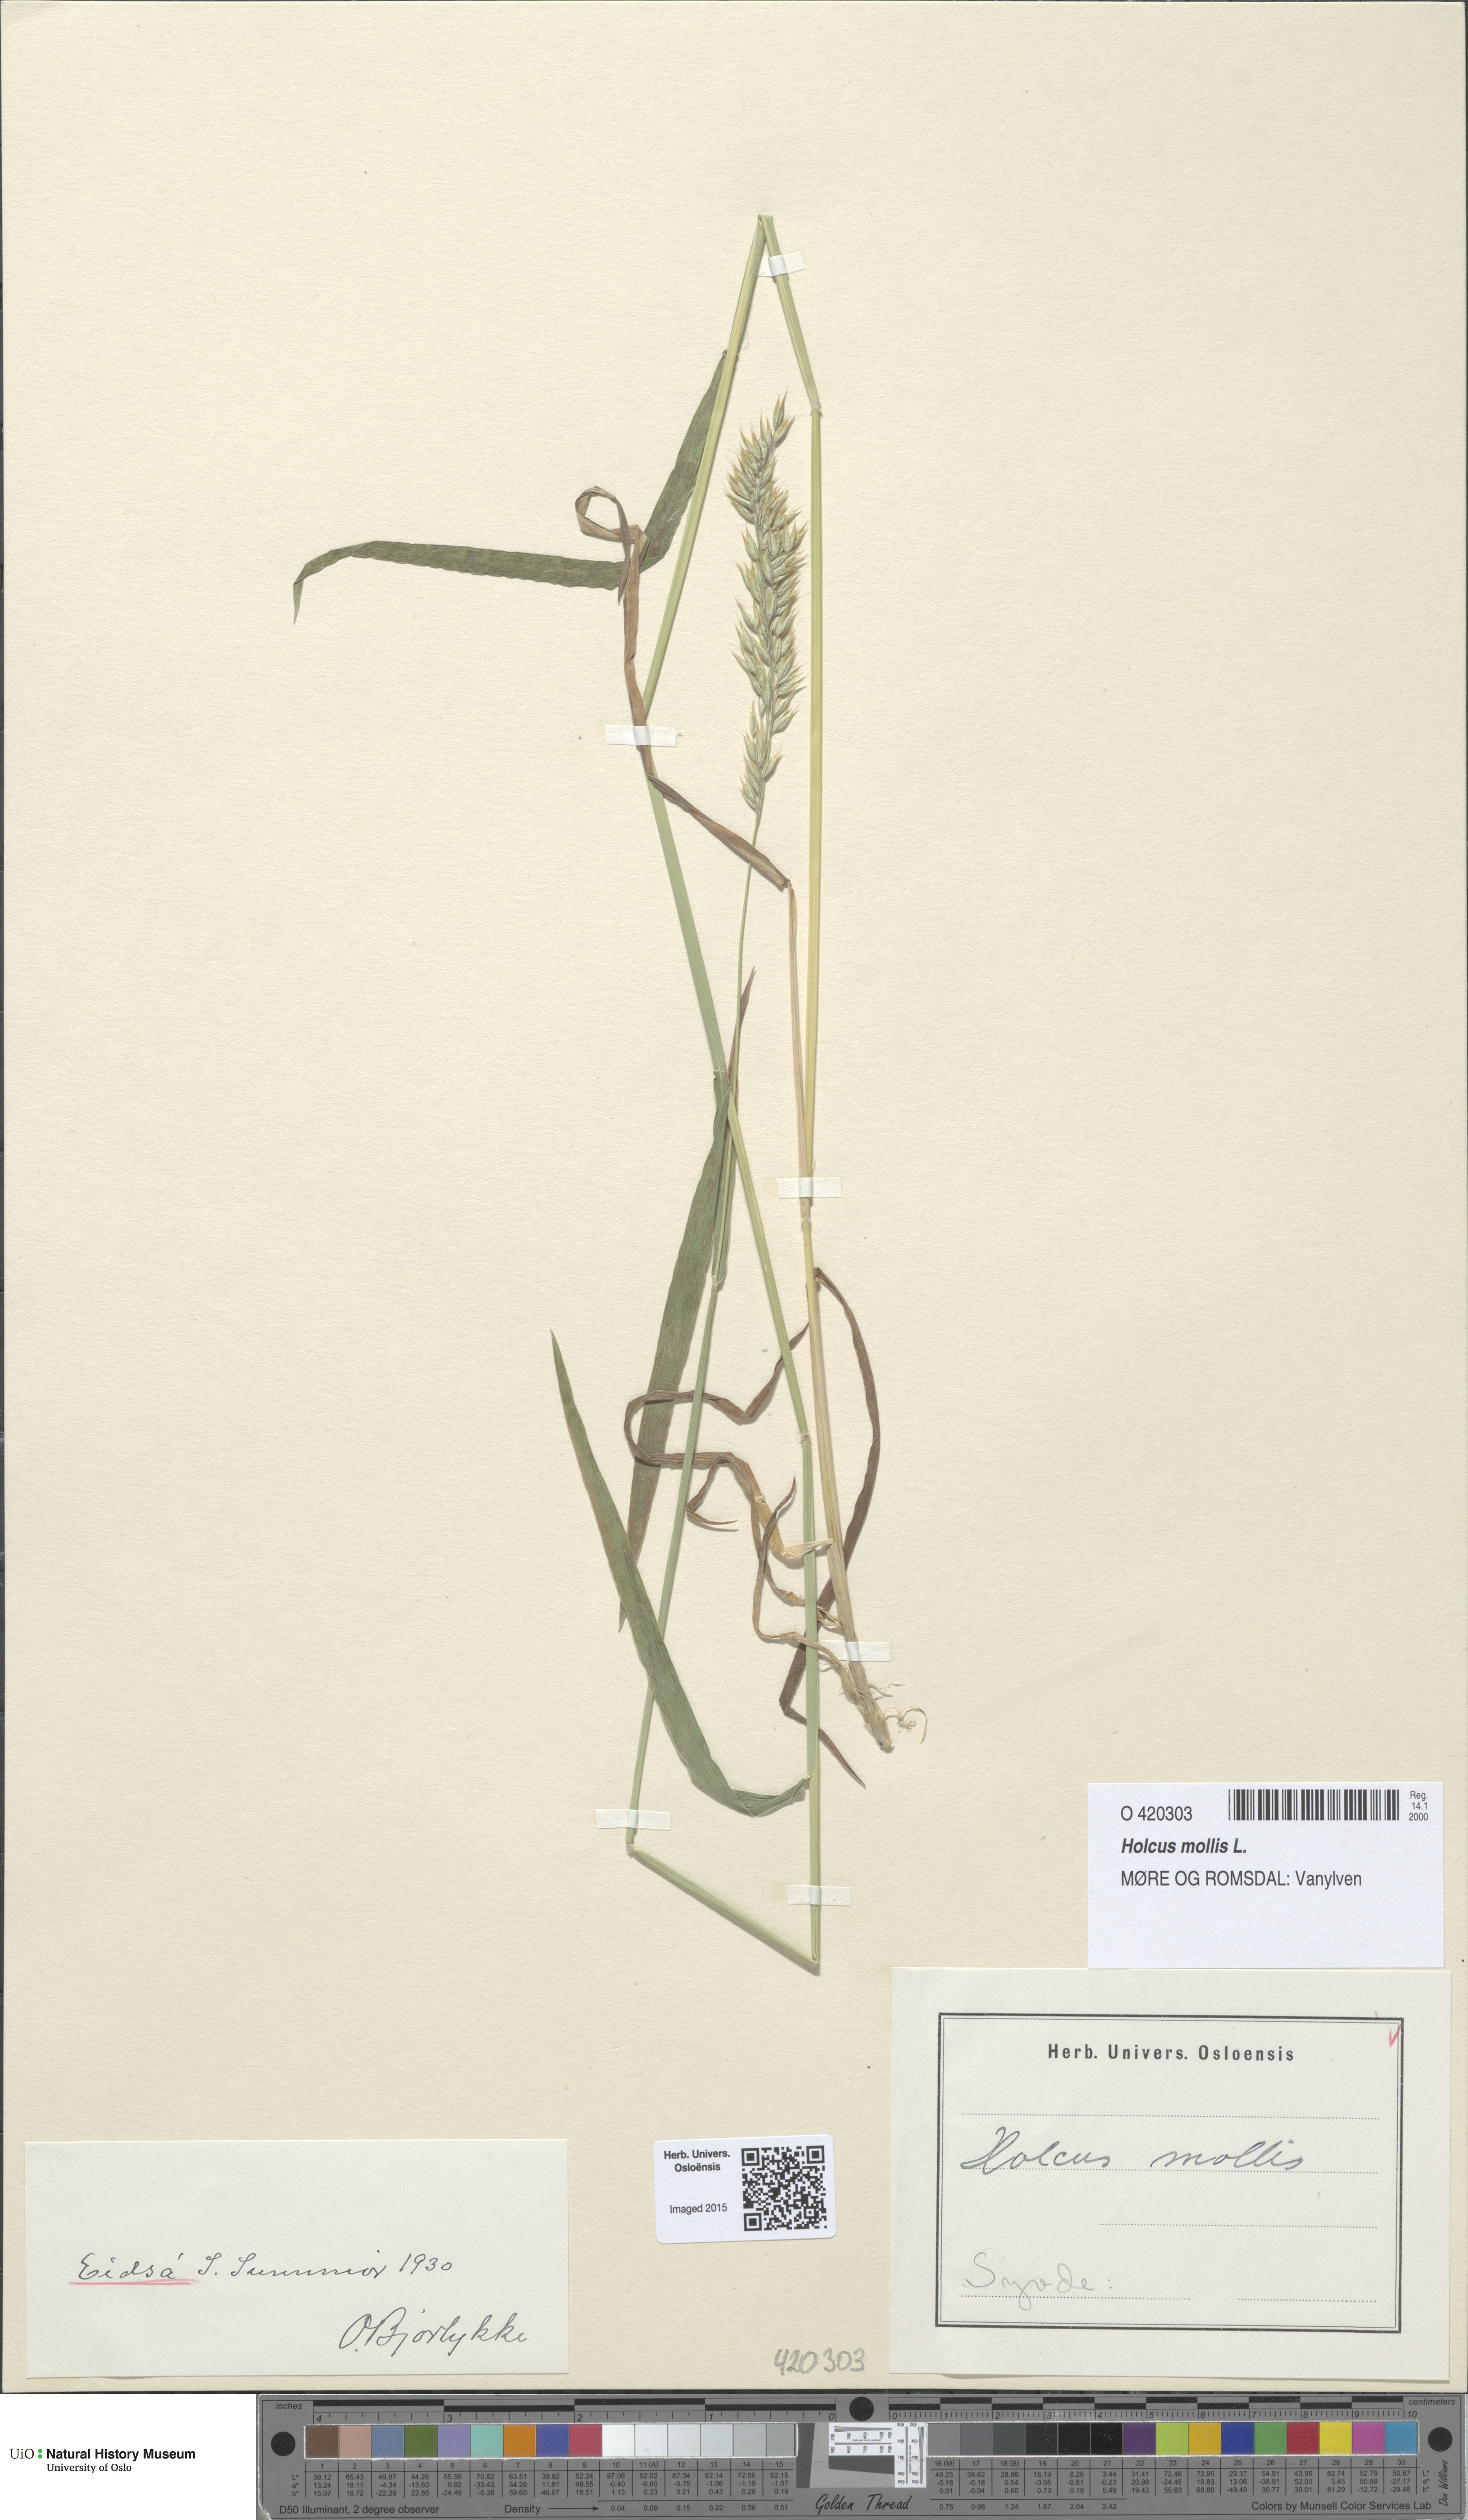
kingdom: Plantae
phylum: Tracheophyta
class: Liliopsida
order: Poales
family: Poaceae
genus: Holcus
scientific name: Holcus mollis
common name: Creeping velvetgrass
